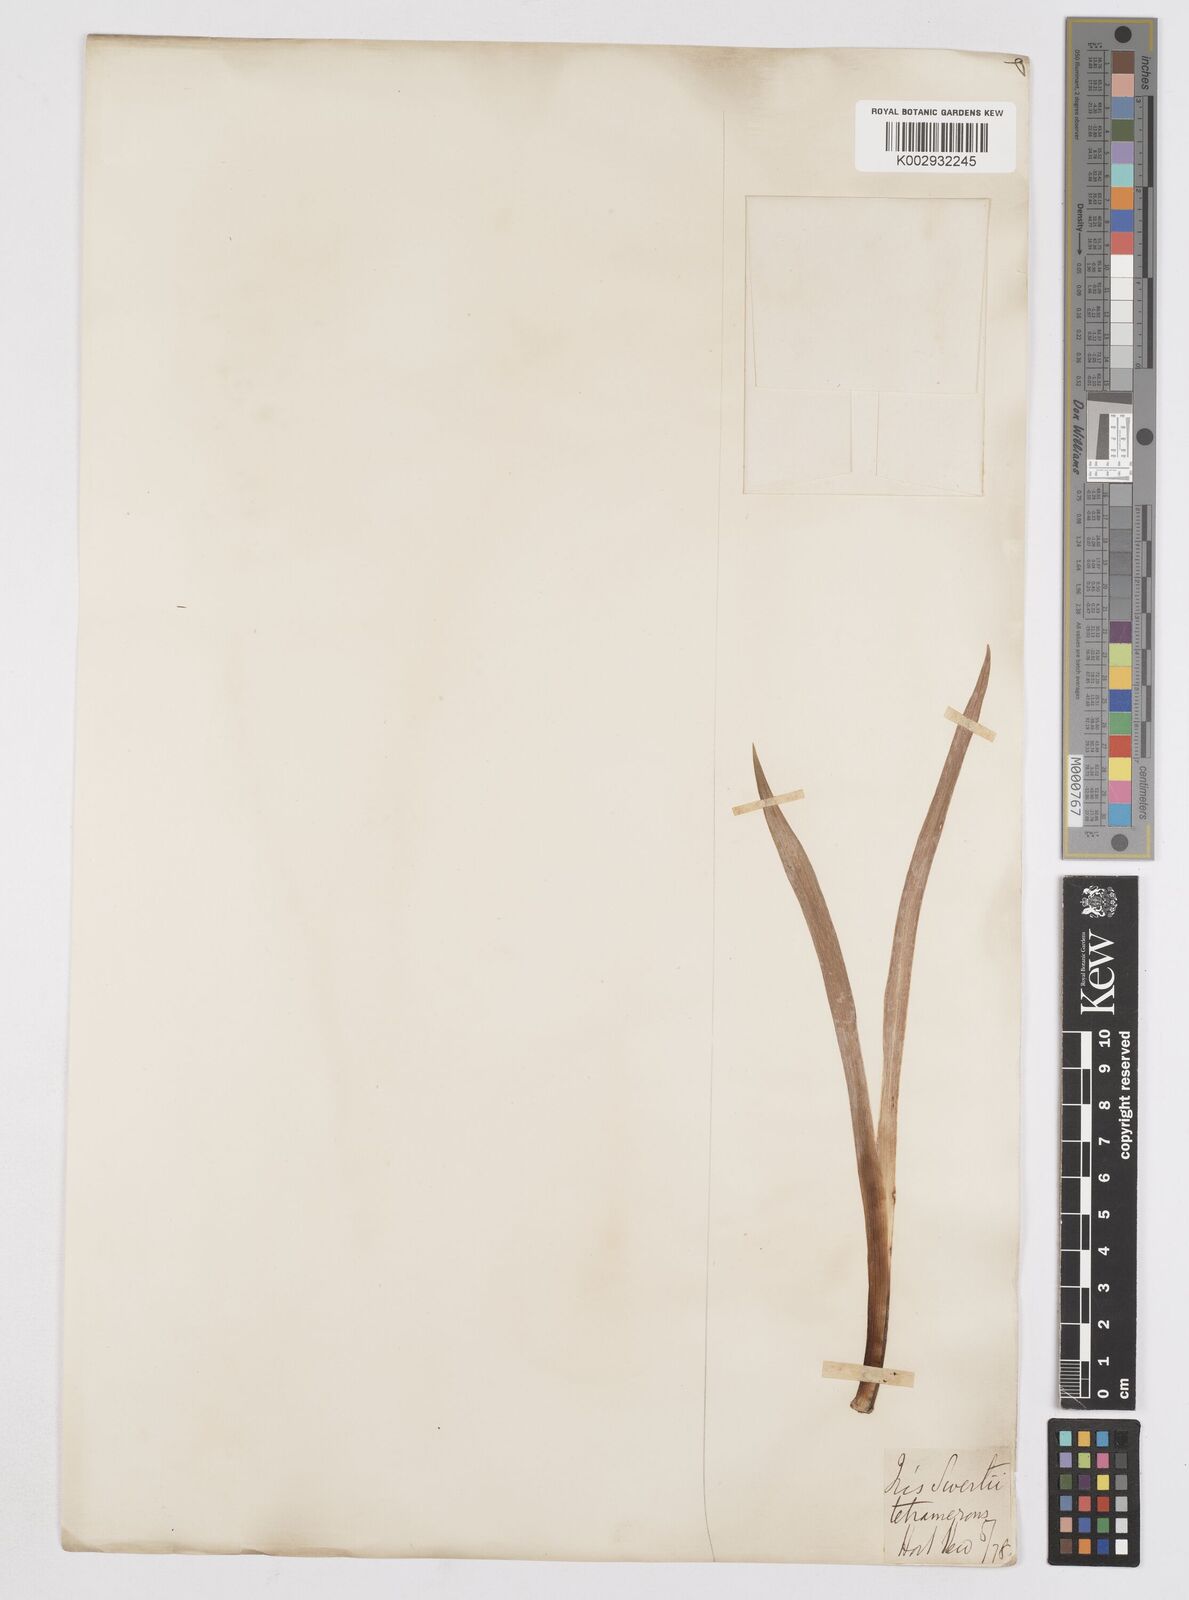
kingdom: Plantae
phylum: Tracheophyta
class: Liliopsida
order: Asparagales
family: Iridaceae
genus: Iris
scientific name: Iris germanica
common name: German iris
